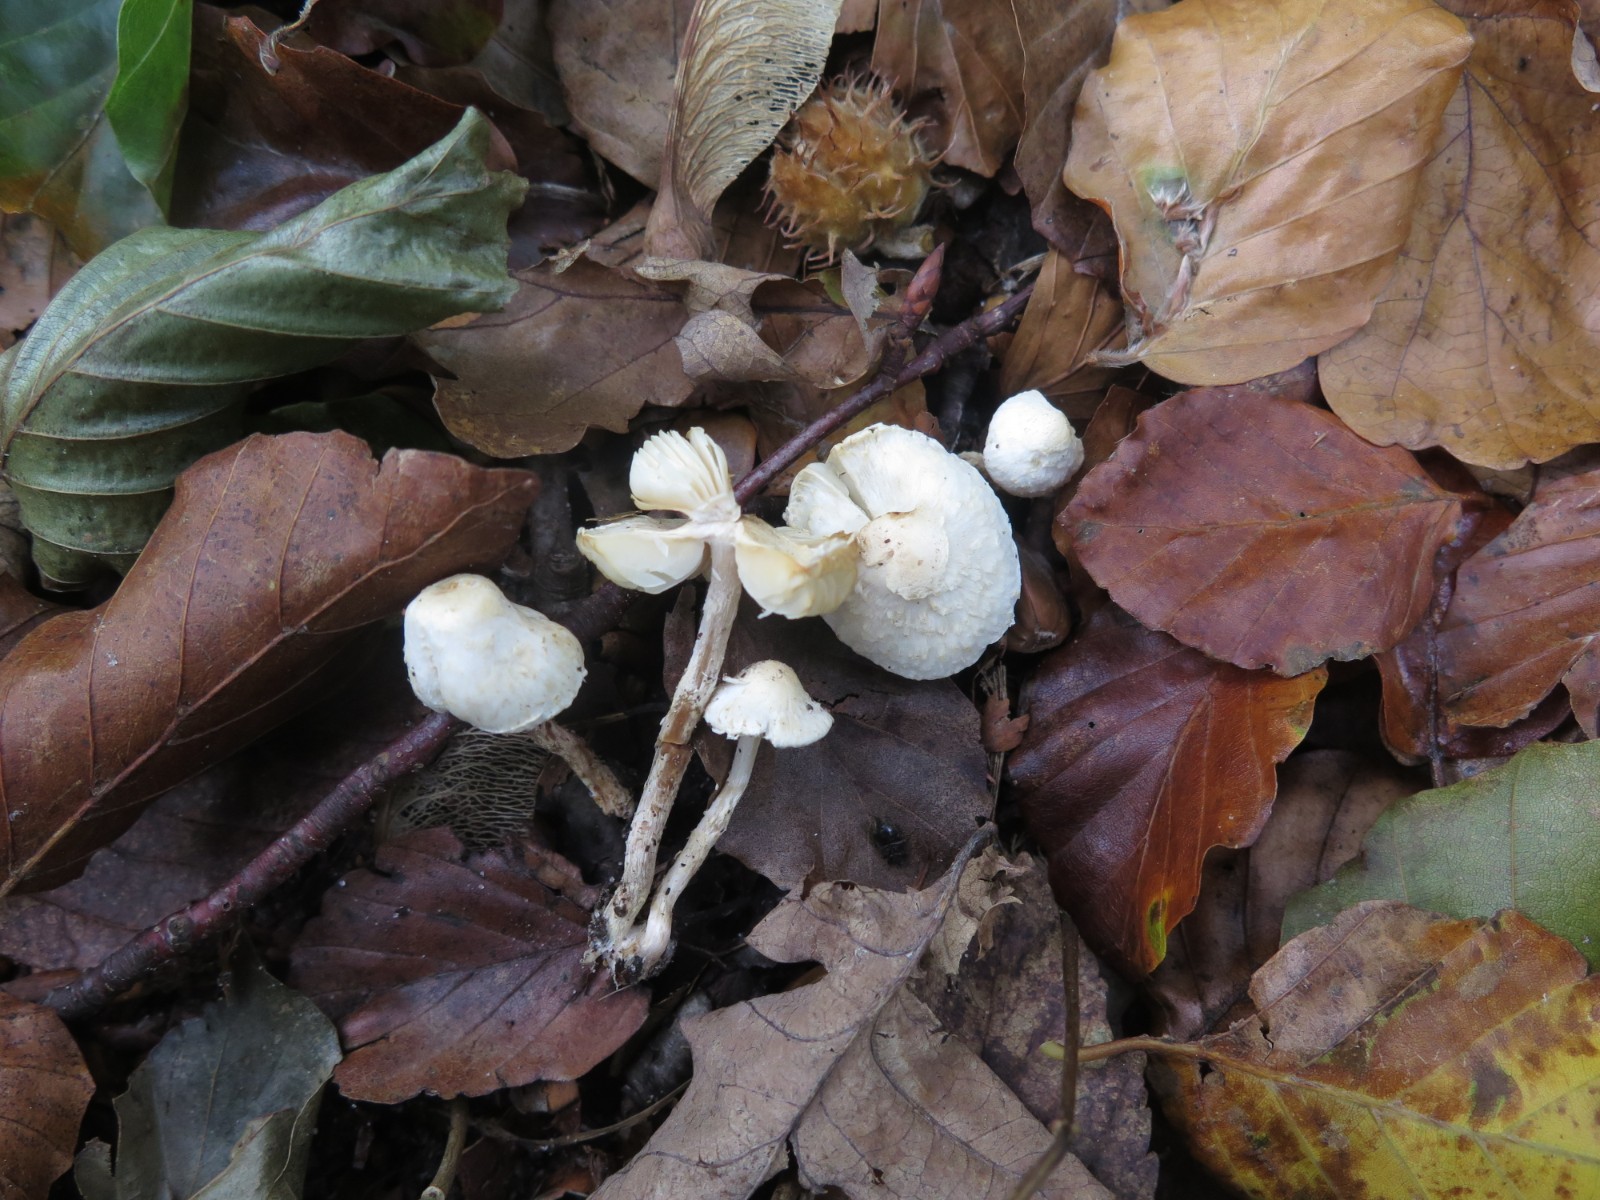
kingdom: Fungi
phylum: Basidiomycota
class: Agaricomycetes
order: Agaricales
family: Agaricaceae
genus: Cystolepiota
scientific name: Cystolepiota seminuda
